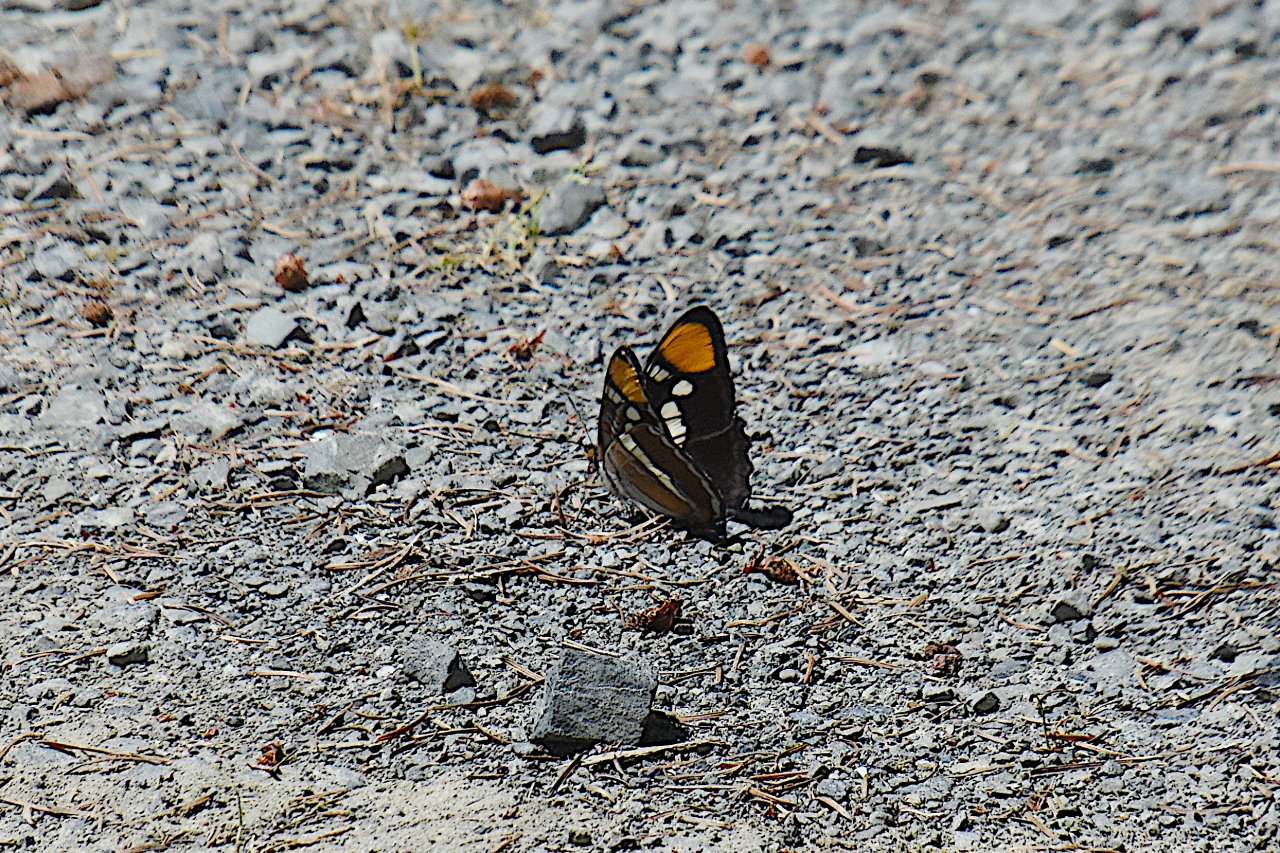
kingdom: Animalia
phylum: Arthropoda
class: Insecta
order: Lepidoptera
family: Nymphalidae
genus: Limenitis
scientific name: Limenitis bredowii
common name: California Sister
